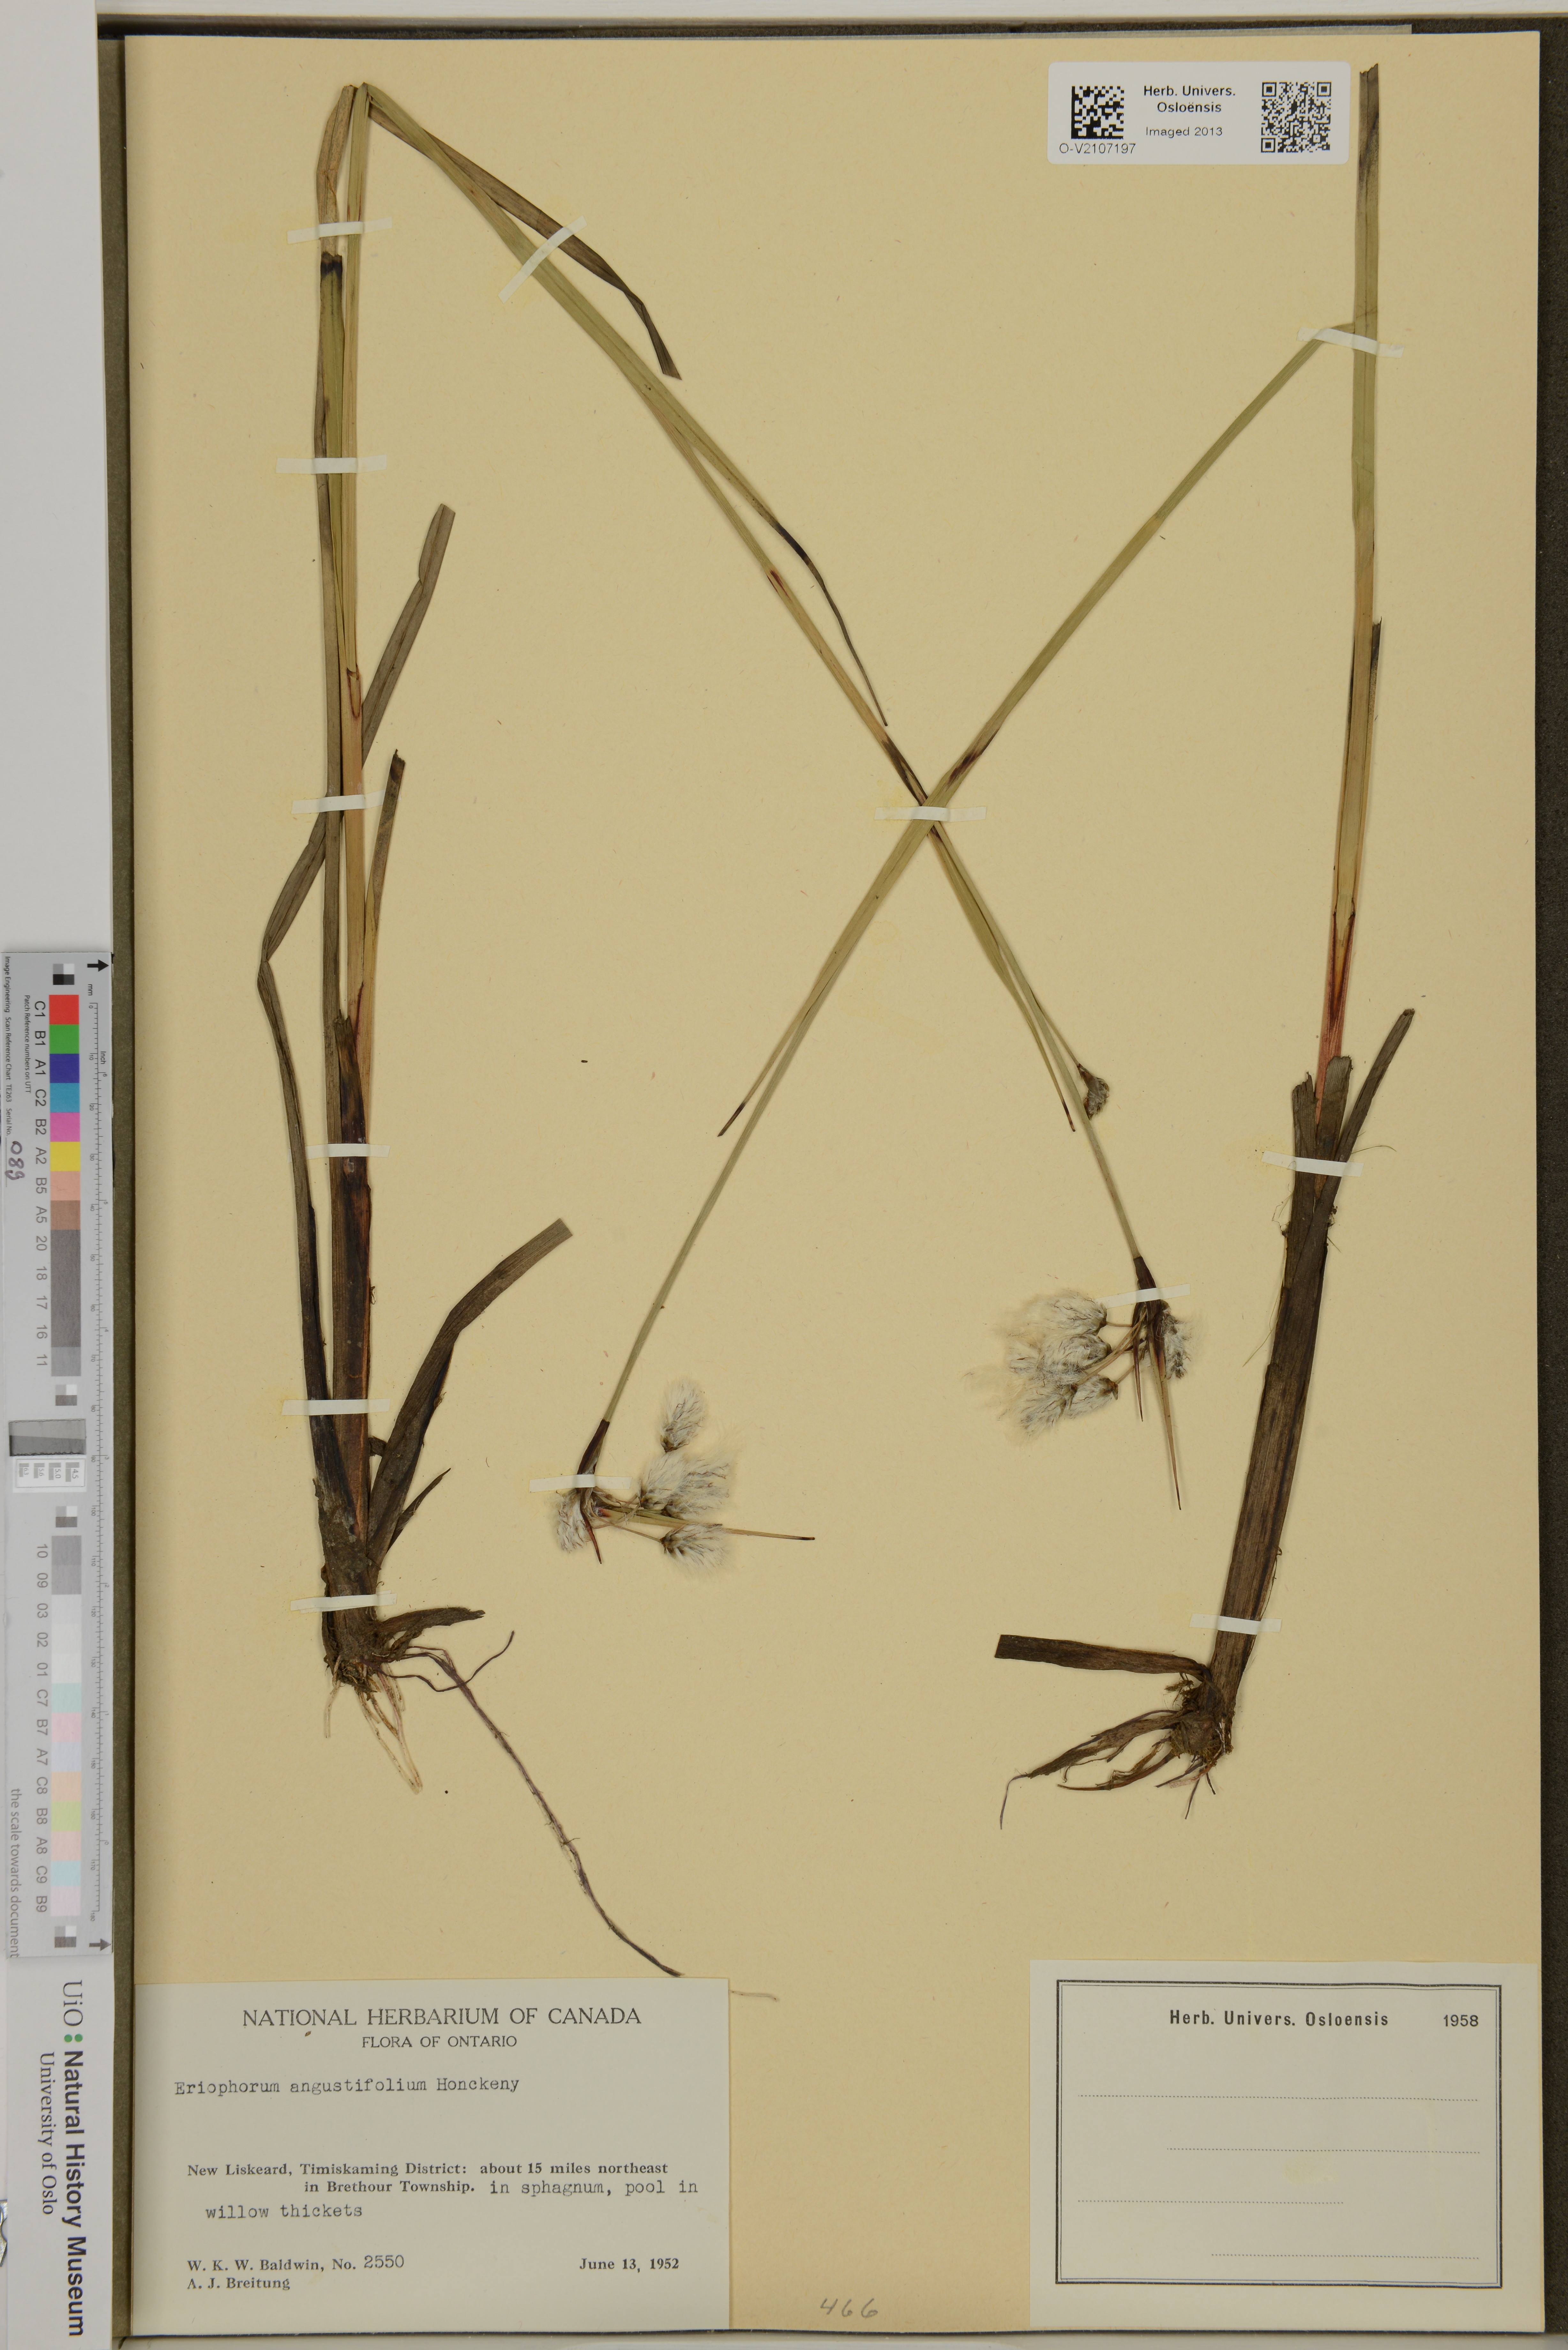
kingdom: Plantae
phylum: Tracheophyta
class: Liliopsida
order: Poales
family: Cyperaceae
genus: Eriophorum
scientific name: Eriophorum angustifolium
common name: Common cottongrass
